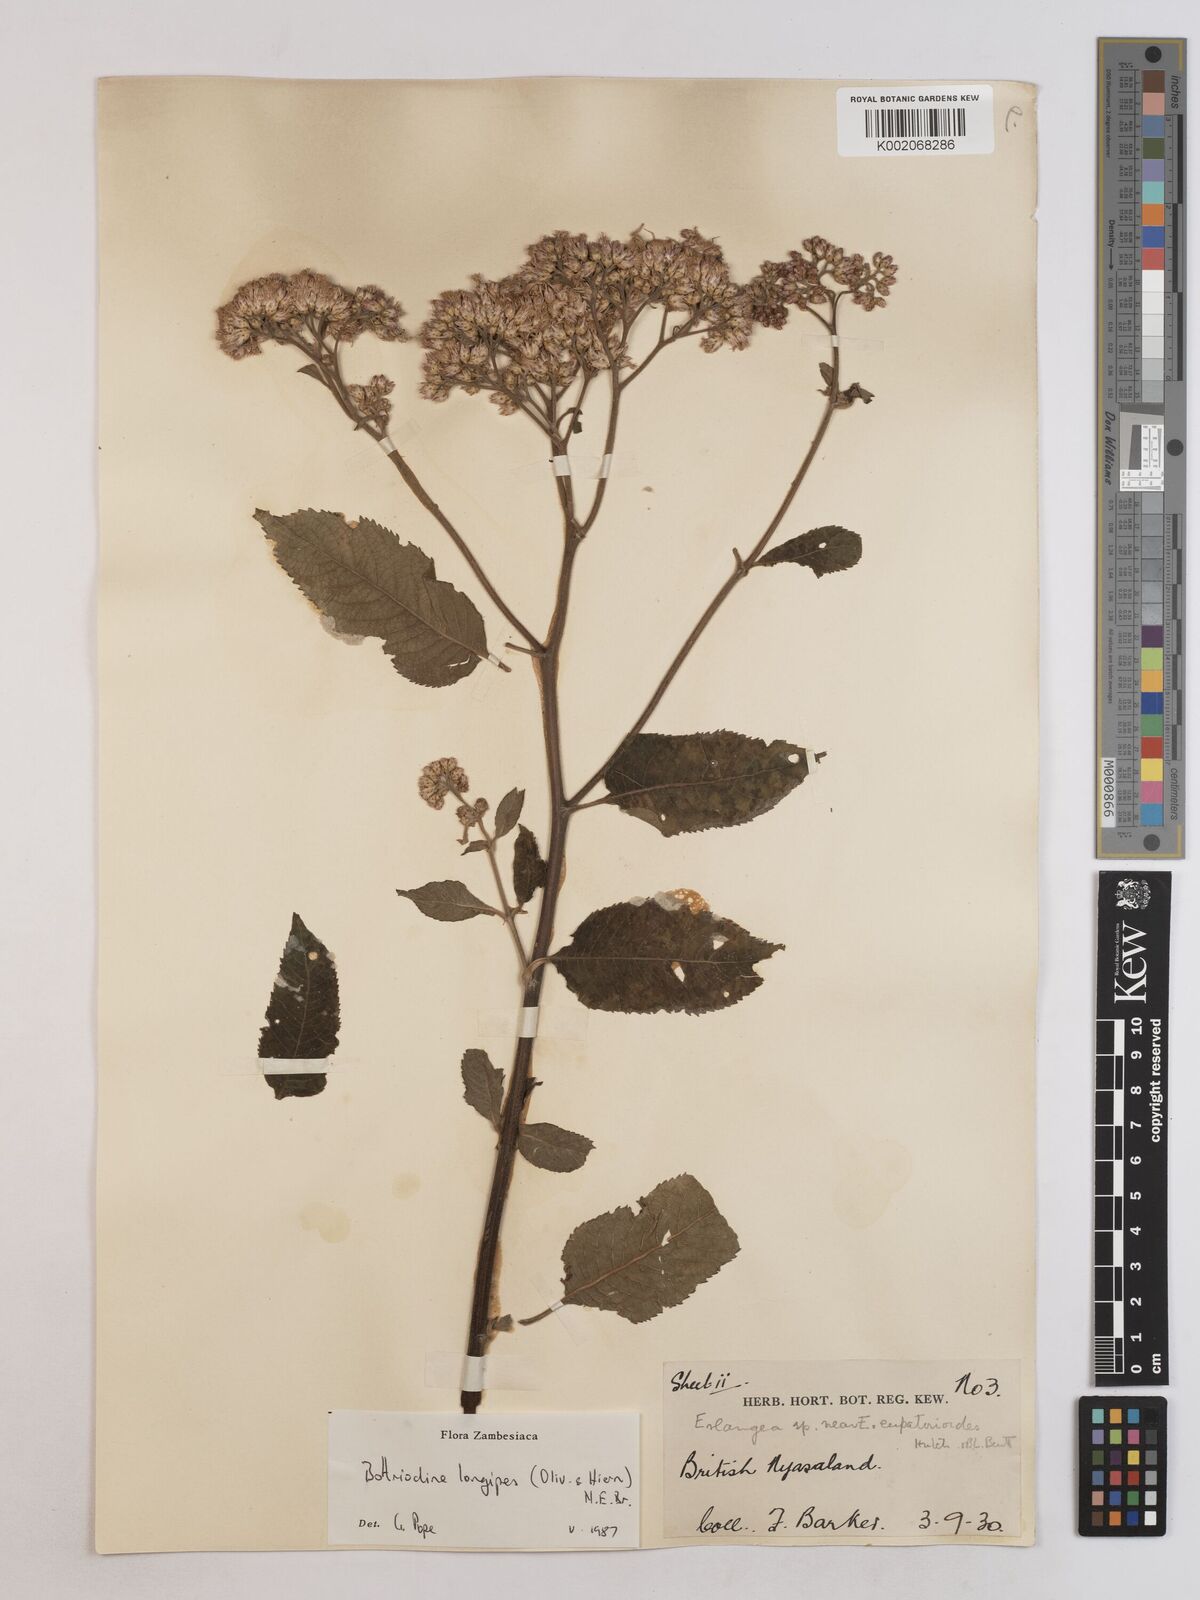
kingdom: Plantae
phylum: Tracheophyta
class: Magnoliopsida
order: Asterales
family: Asteraceae
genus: Bothriocline
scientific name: Bothriocline longipes
